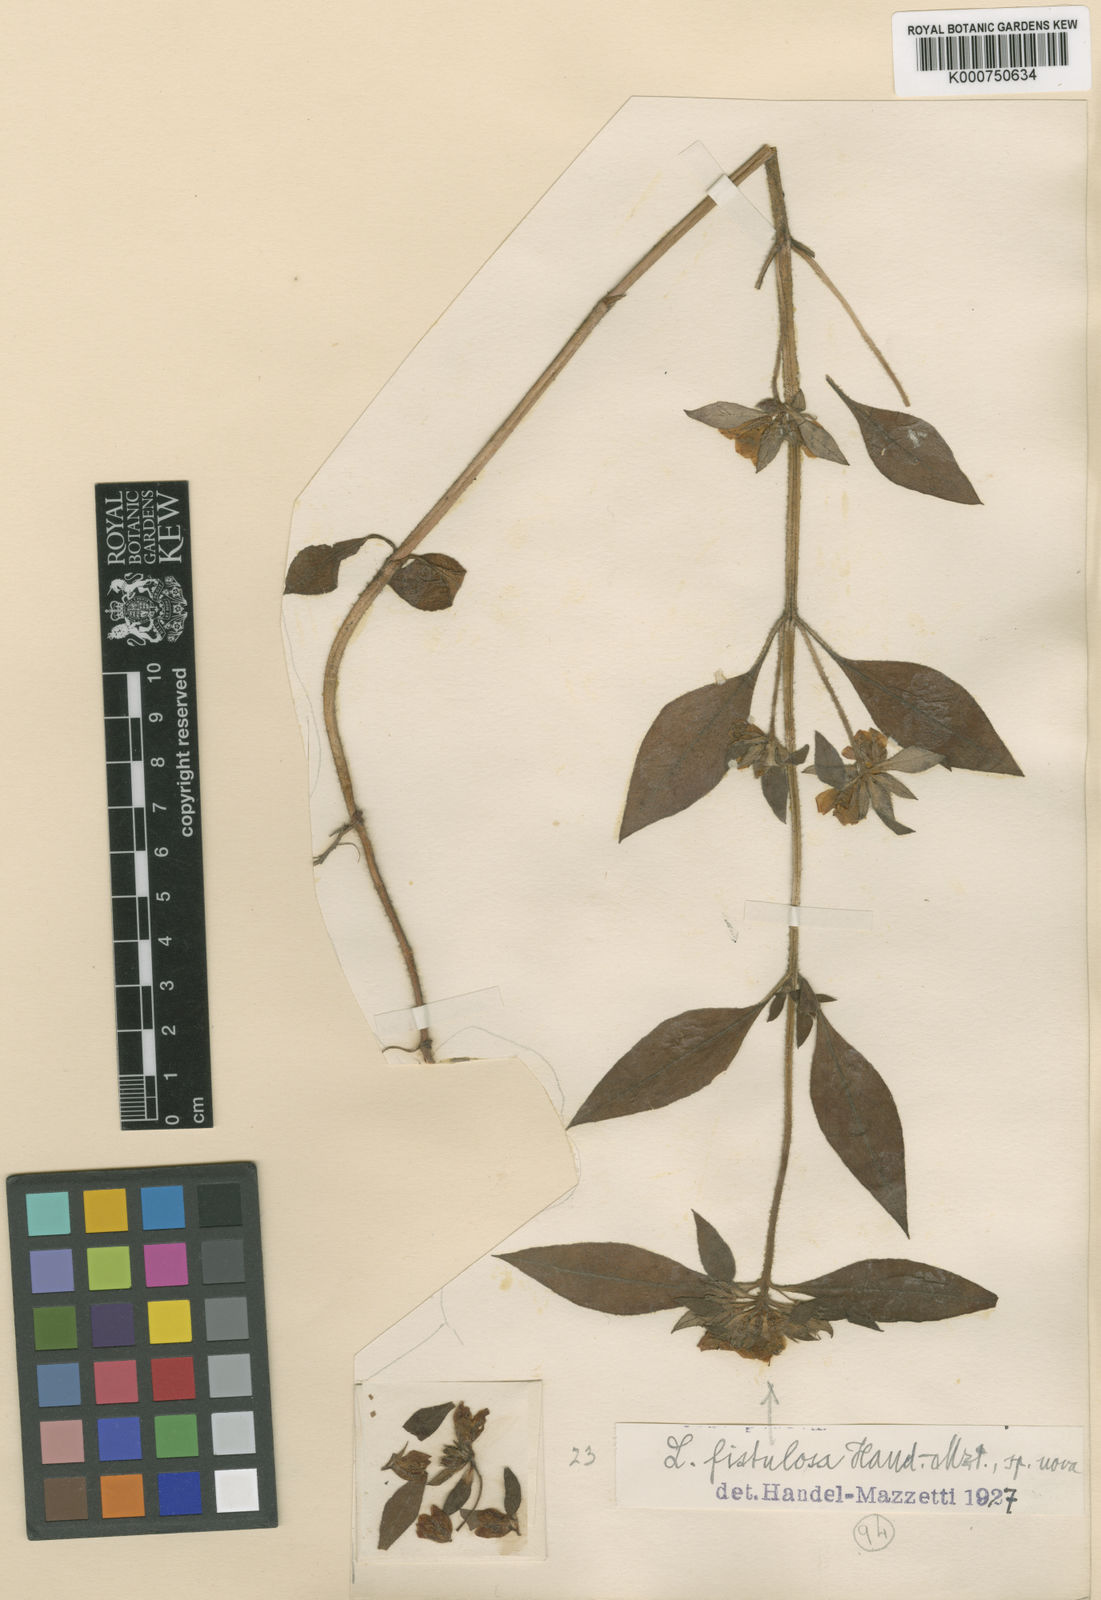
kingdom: Plantae
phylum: Tracheophyta
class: Magnoliopsida
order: Ericales
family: Primulaceae
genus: Lysimachia
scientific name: Lysimachia fistulosa
